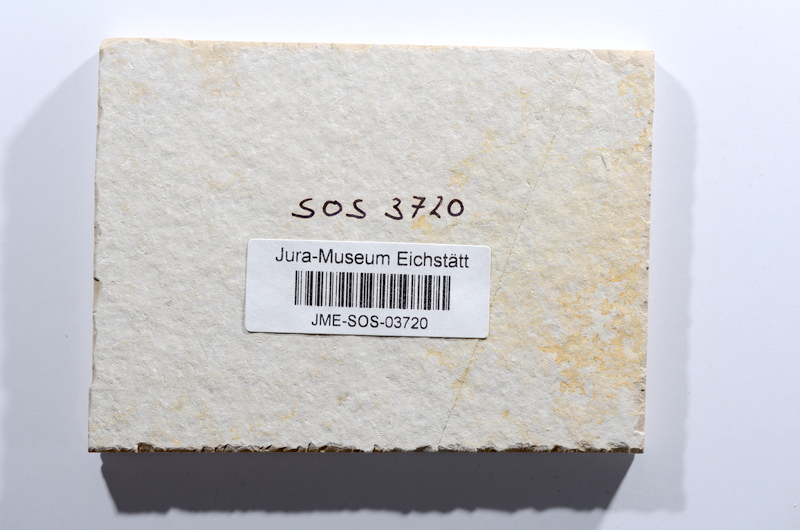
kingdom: Animalia
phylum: Chordata
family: Ascalaboidae
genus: Tharsis
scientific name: Tharsis dubius
